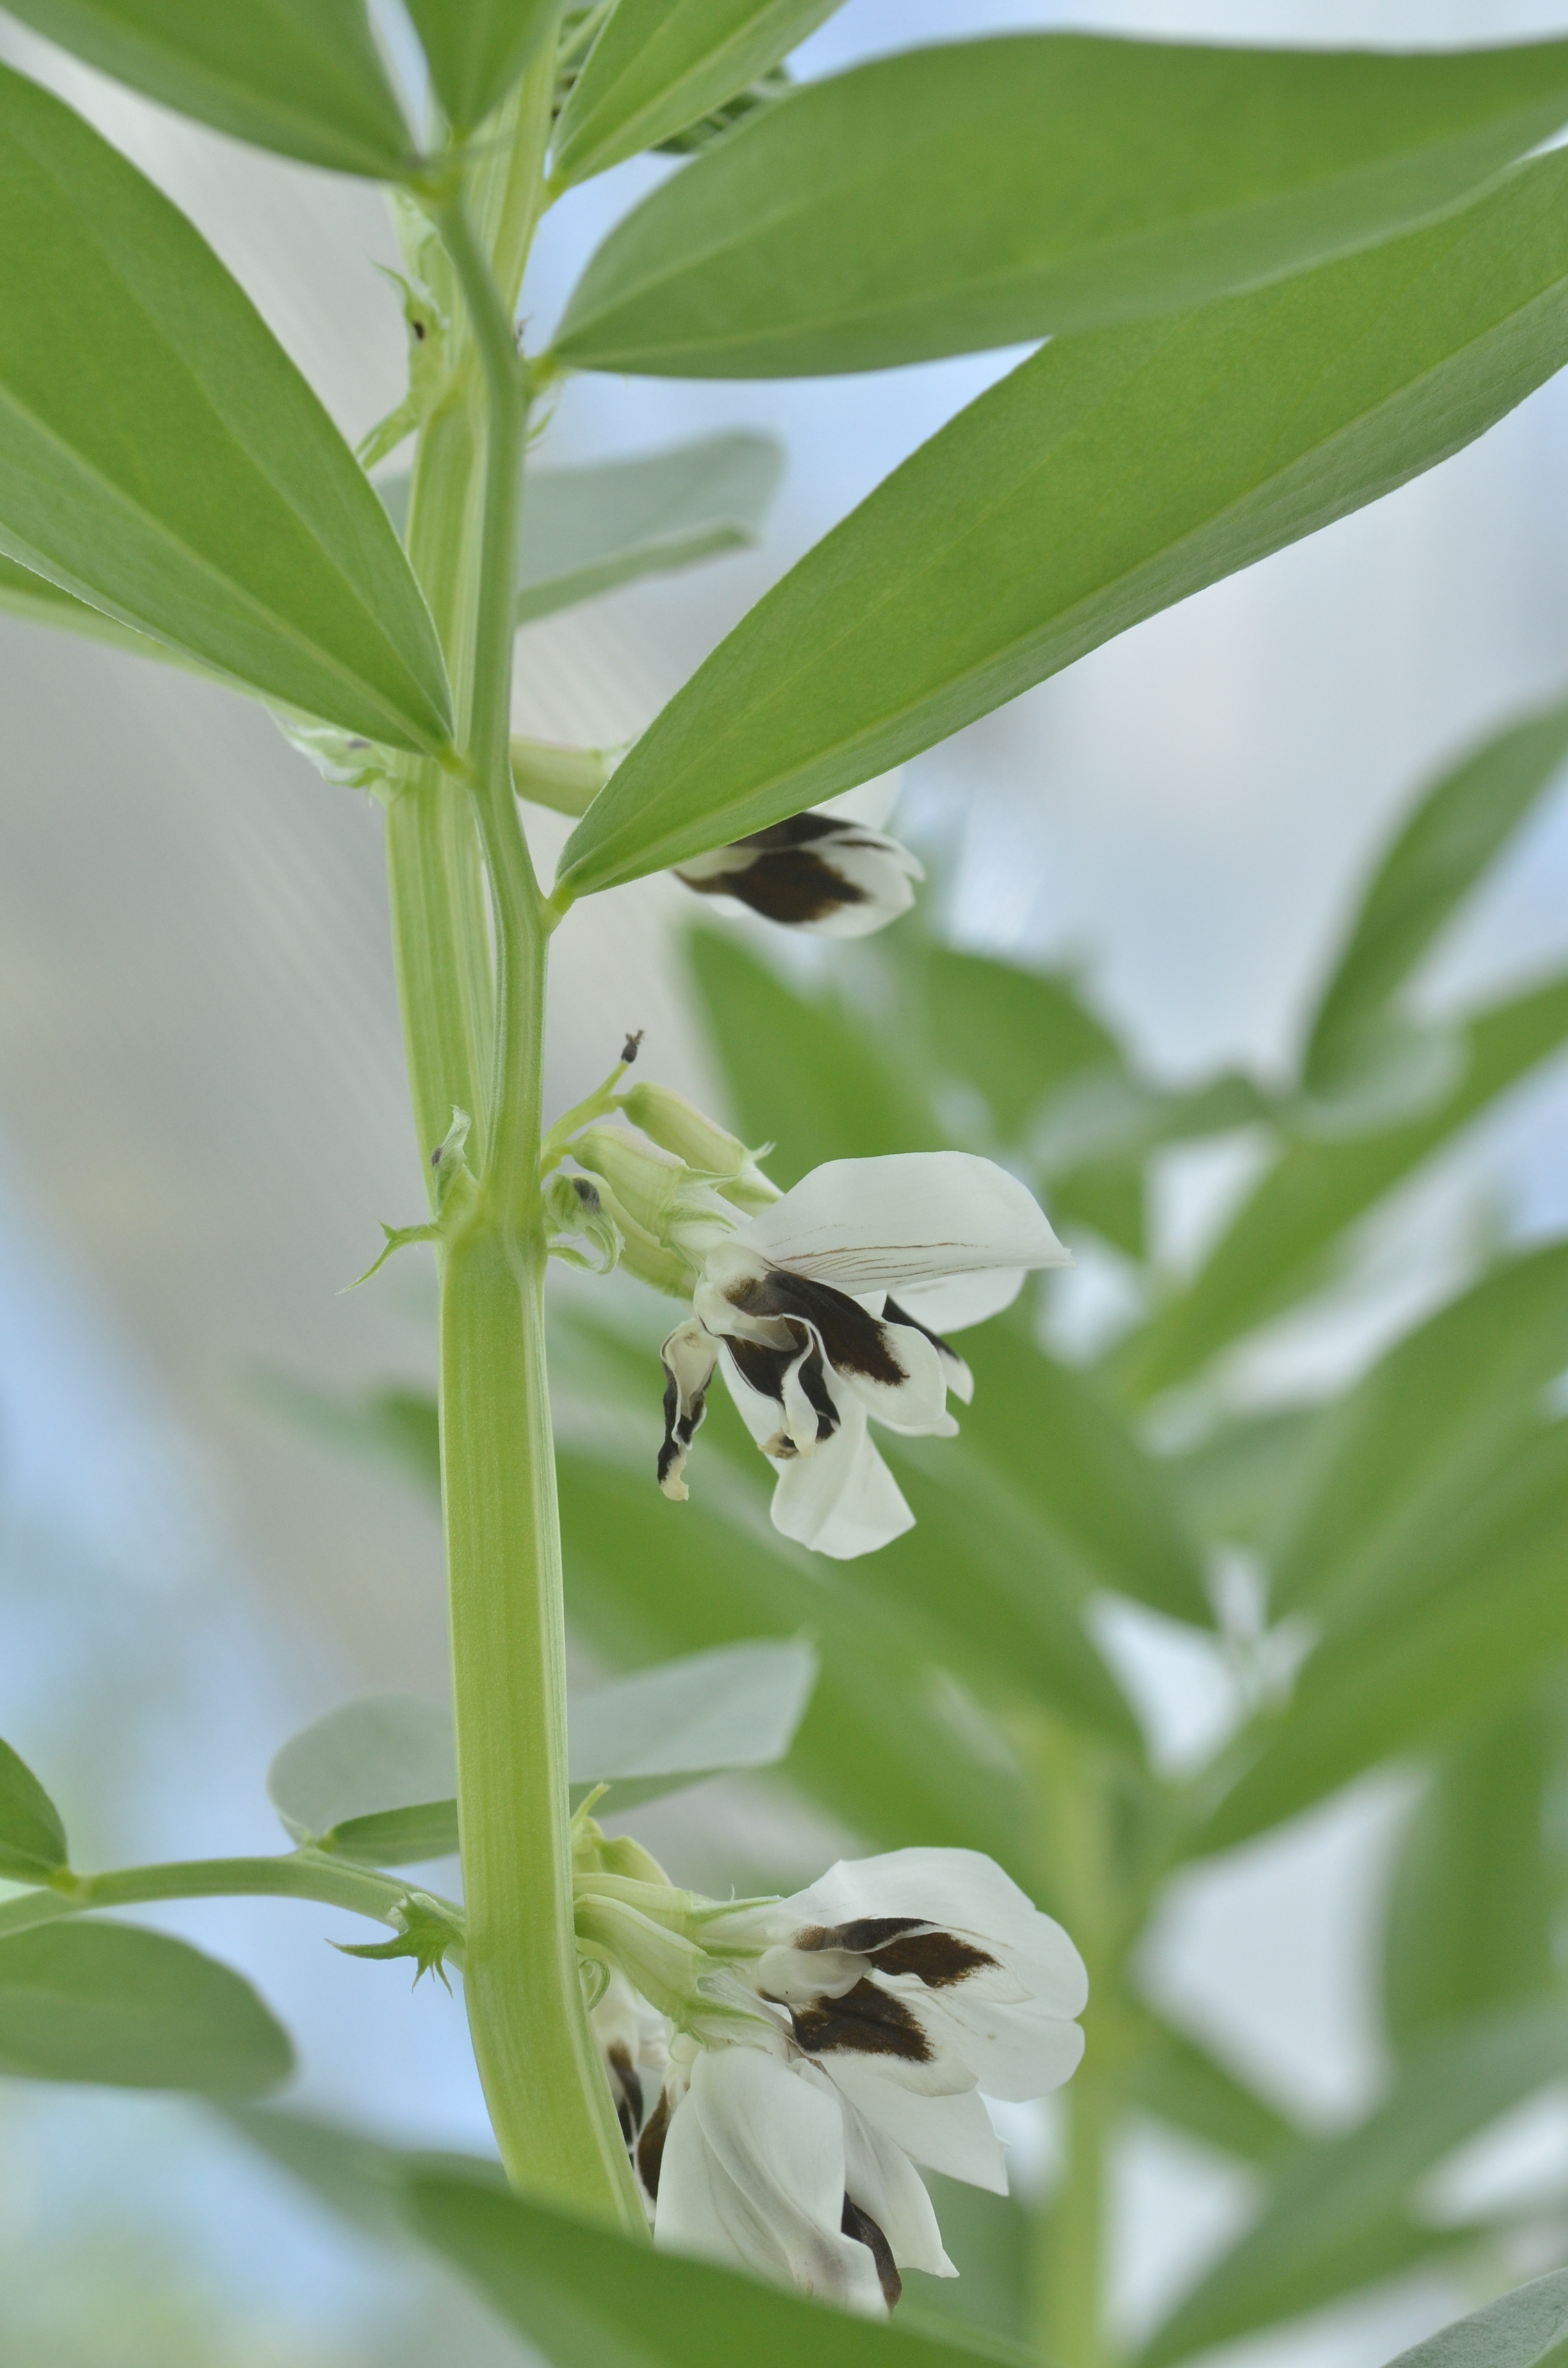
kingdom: Plantae
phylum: Tracheophyta
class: Magnoliopsida
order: Fabales
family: Fabaceae
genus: Vicia
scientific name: Vicia faba
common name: Broad bean
